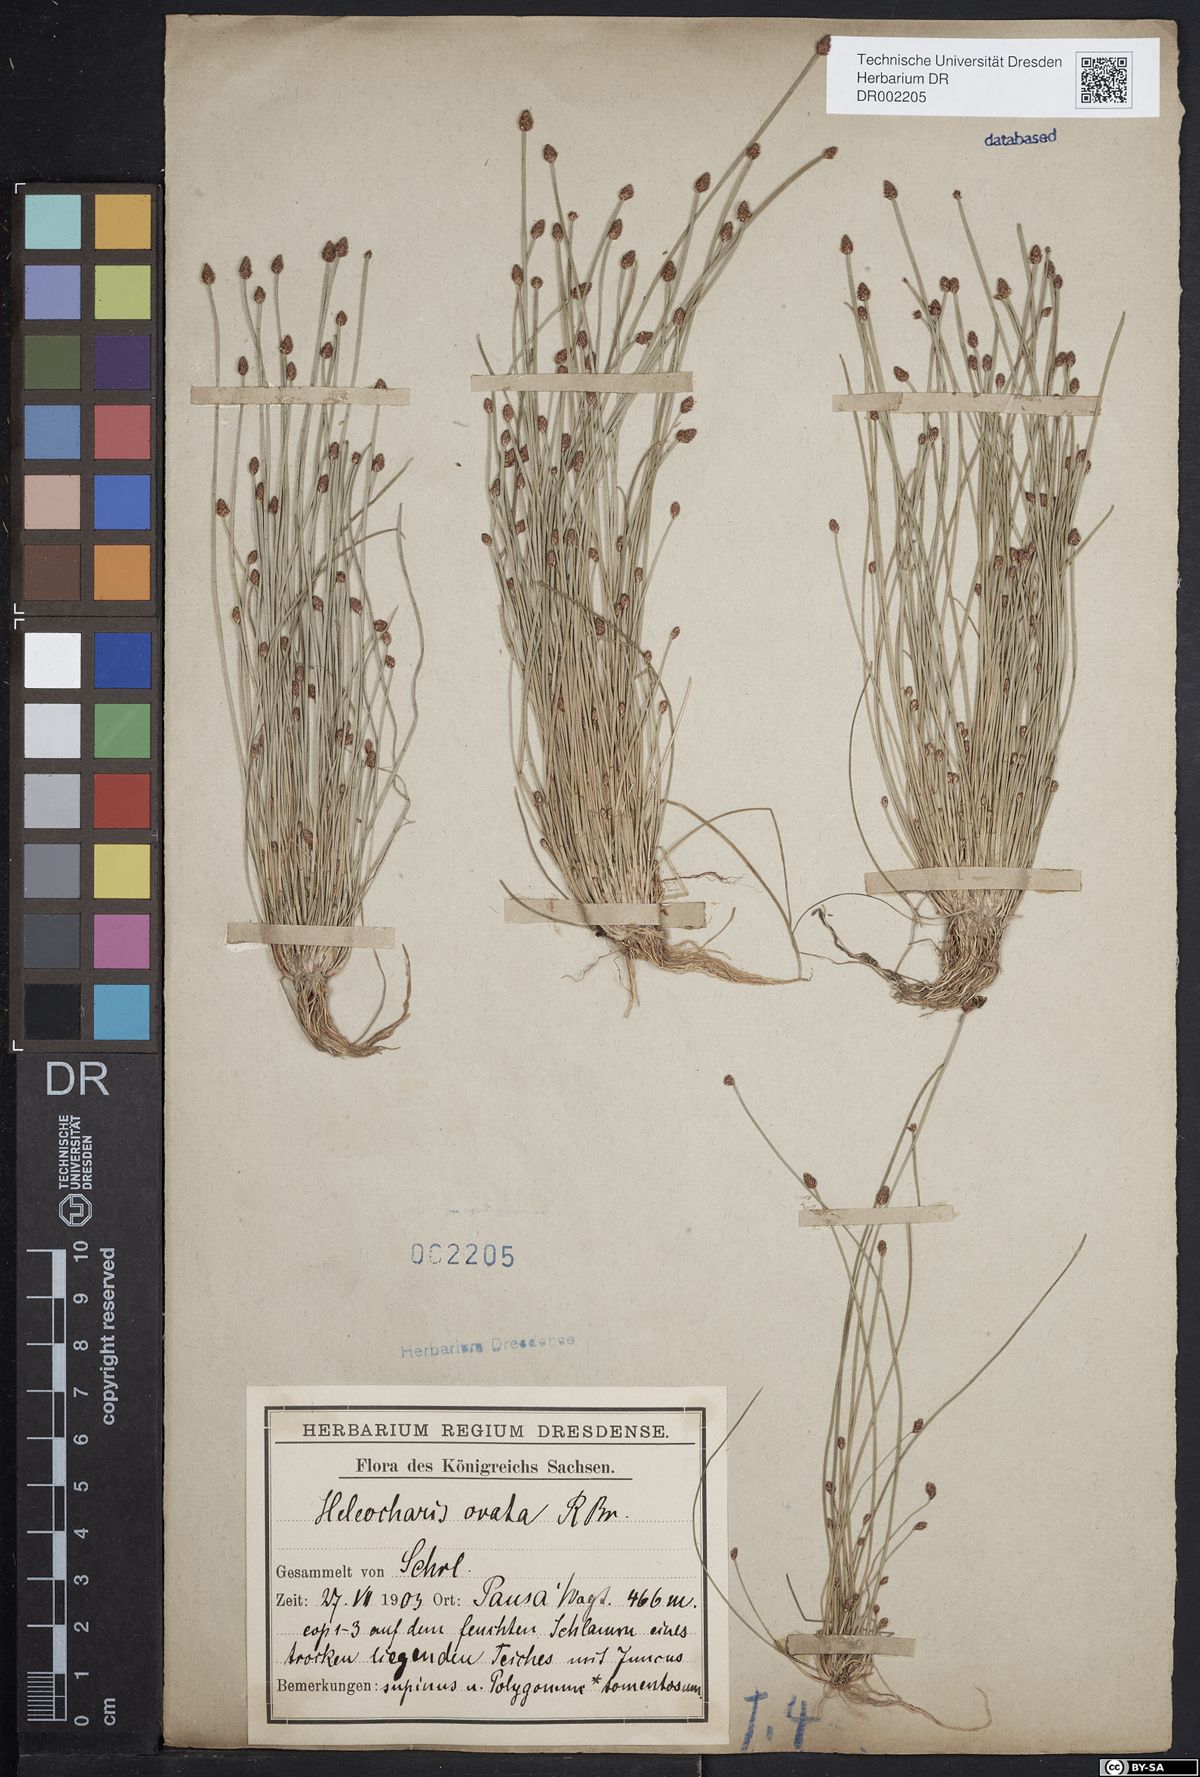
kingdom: Plantae
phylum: Tracheophyta
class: Liliopsida
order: Poales
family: Cyperaceae
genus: Eleocharis
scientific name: Eleocharis ovata
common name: Oval spike-rush
